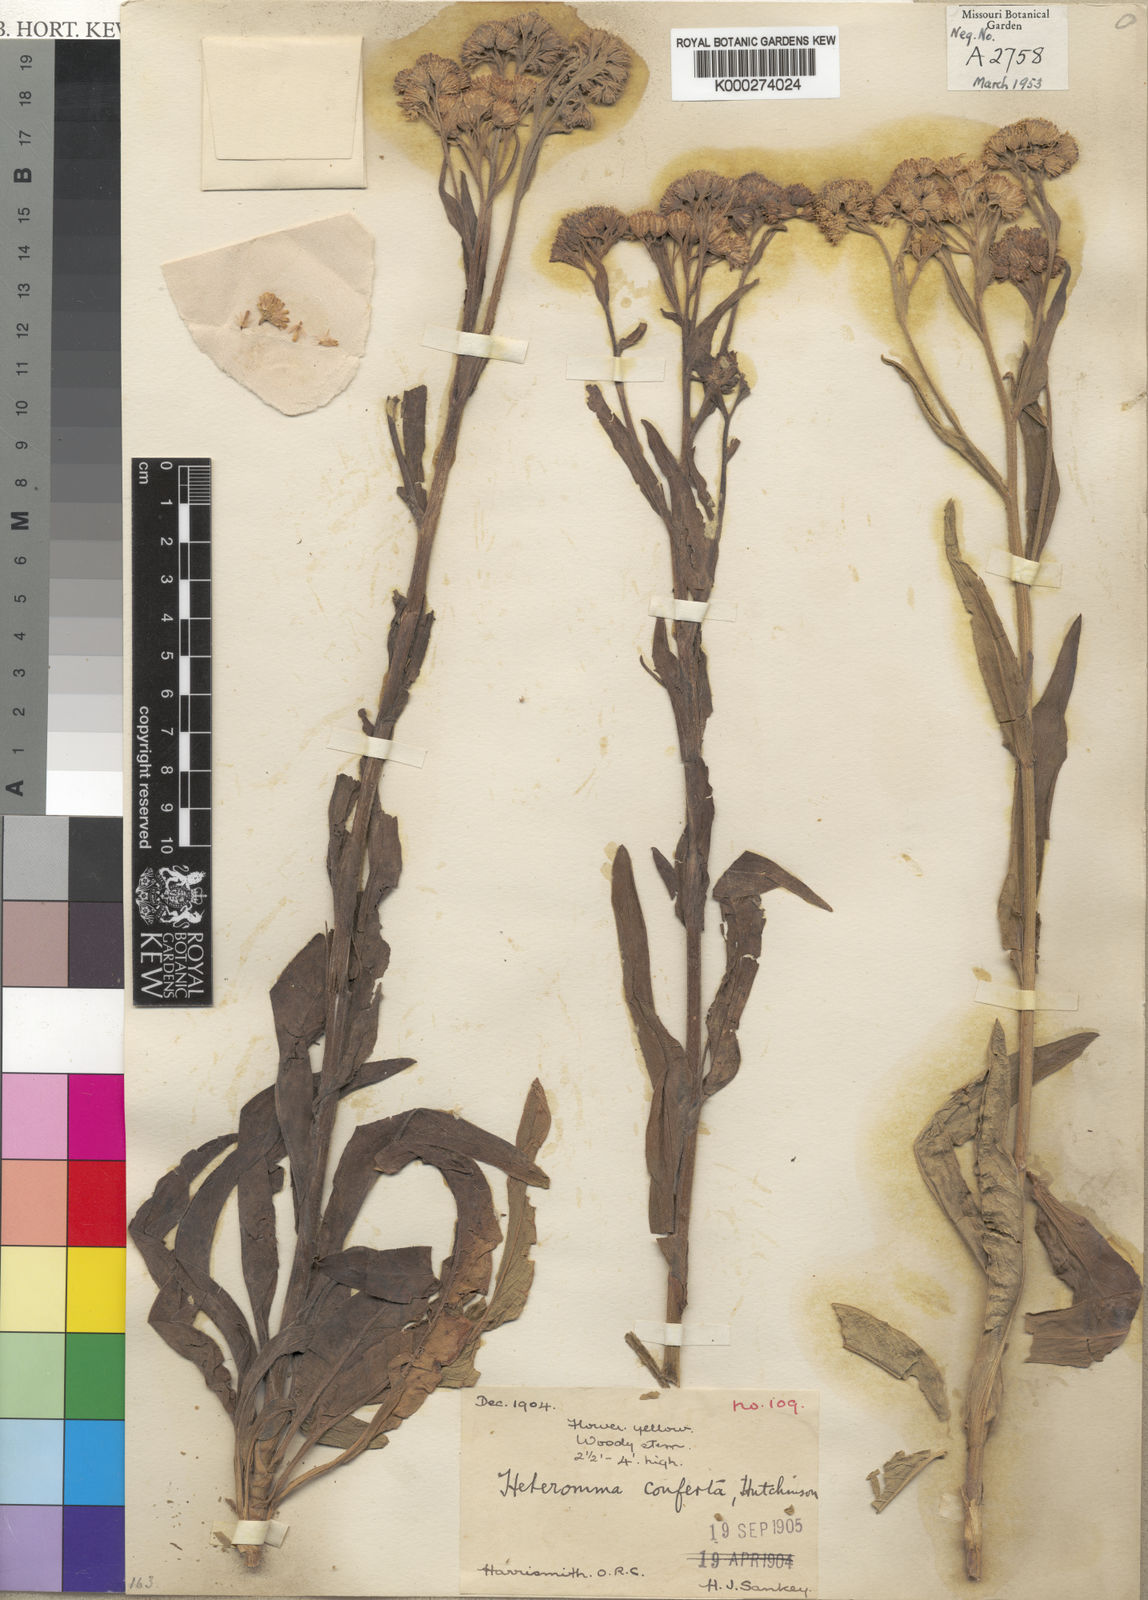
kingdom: Plantae
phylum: Tracheophyta
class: Magnoliopsida
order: Asterales
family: Asteraceae
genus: Heteromma
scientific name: Heteromma
